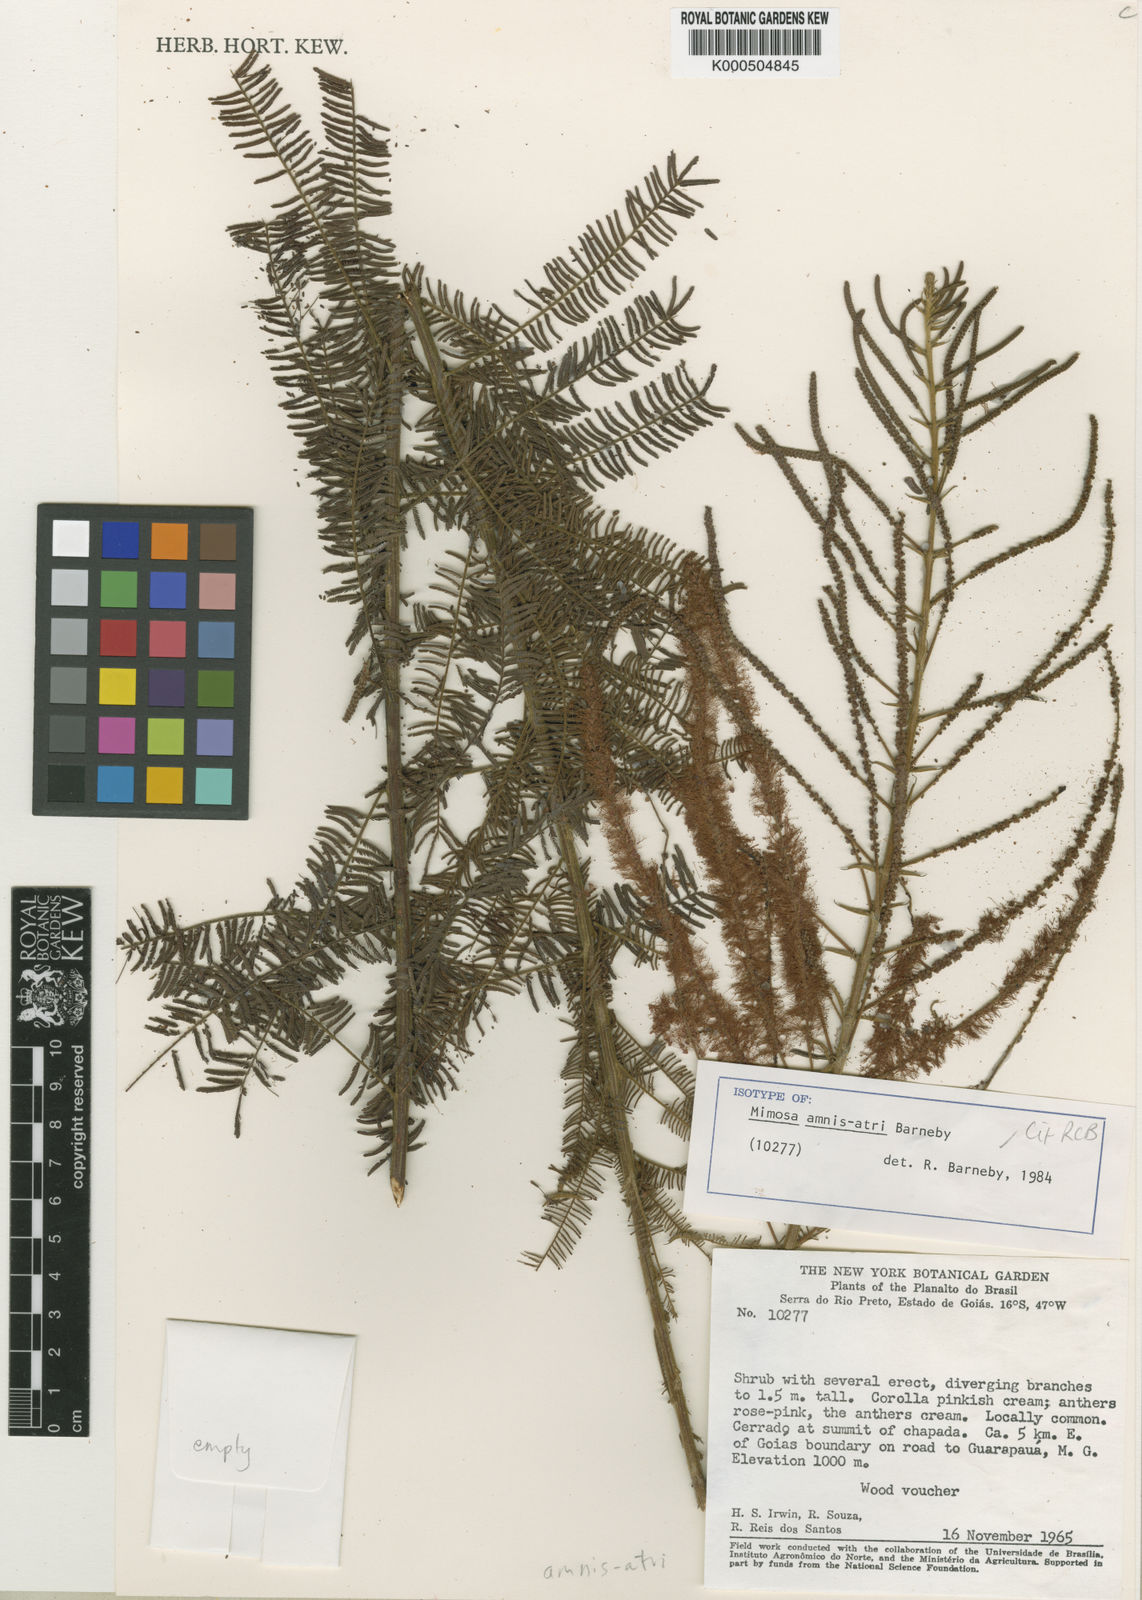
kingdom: Plantae
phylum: Tracheophyta
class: Magnoliopsida
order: Fabales
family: Fabaceae
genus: Mimosa
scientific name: Mimosa
